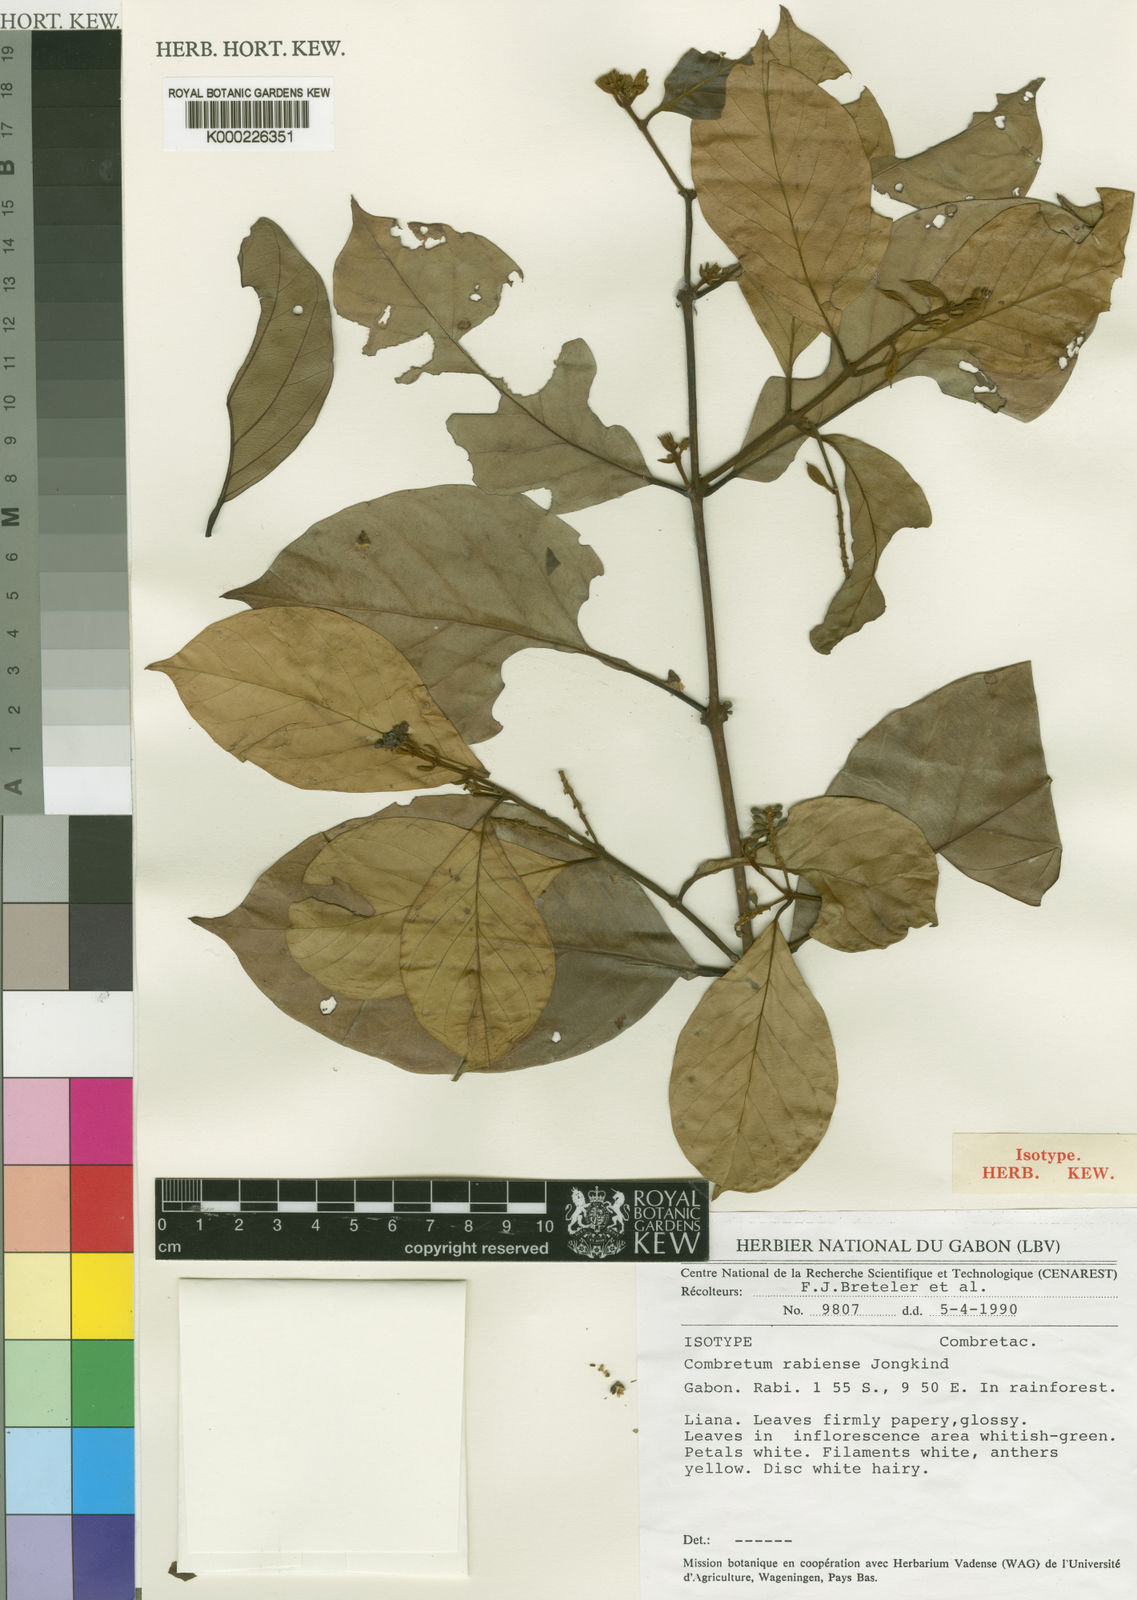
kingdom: Plantae
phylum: Tracheophyta
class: Magnoliopsida
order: Myrtales
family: Combretaceae
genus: Combretum
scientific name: Combretum rabiense
